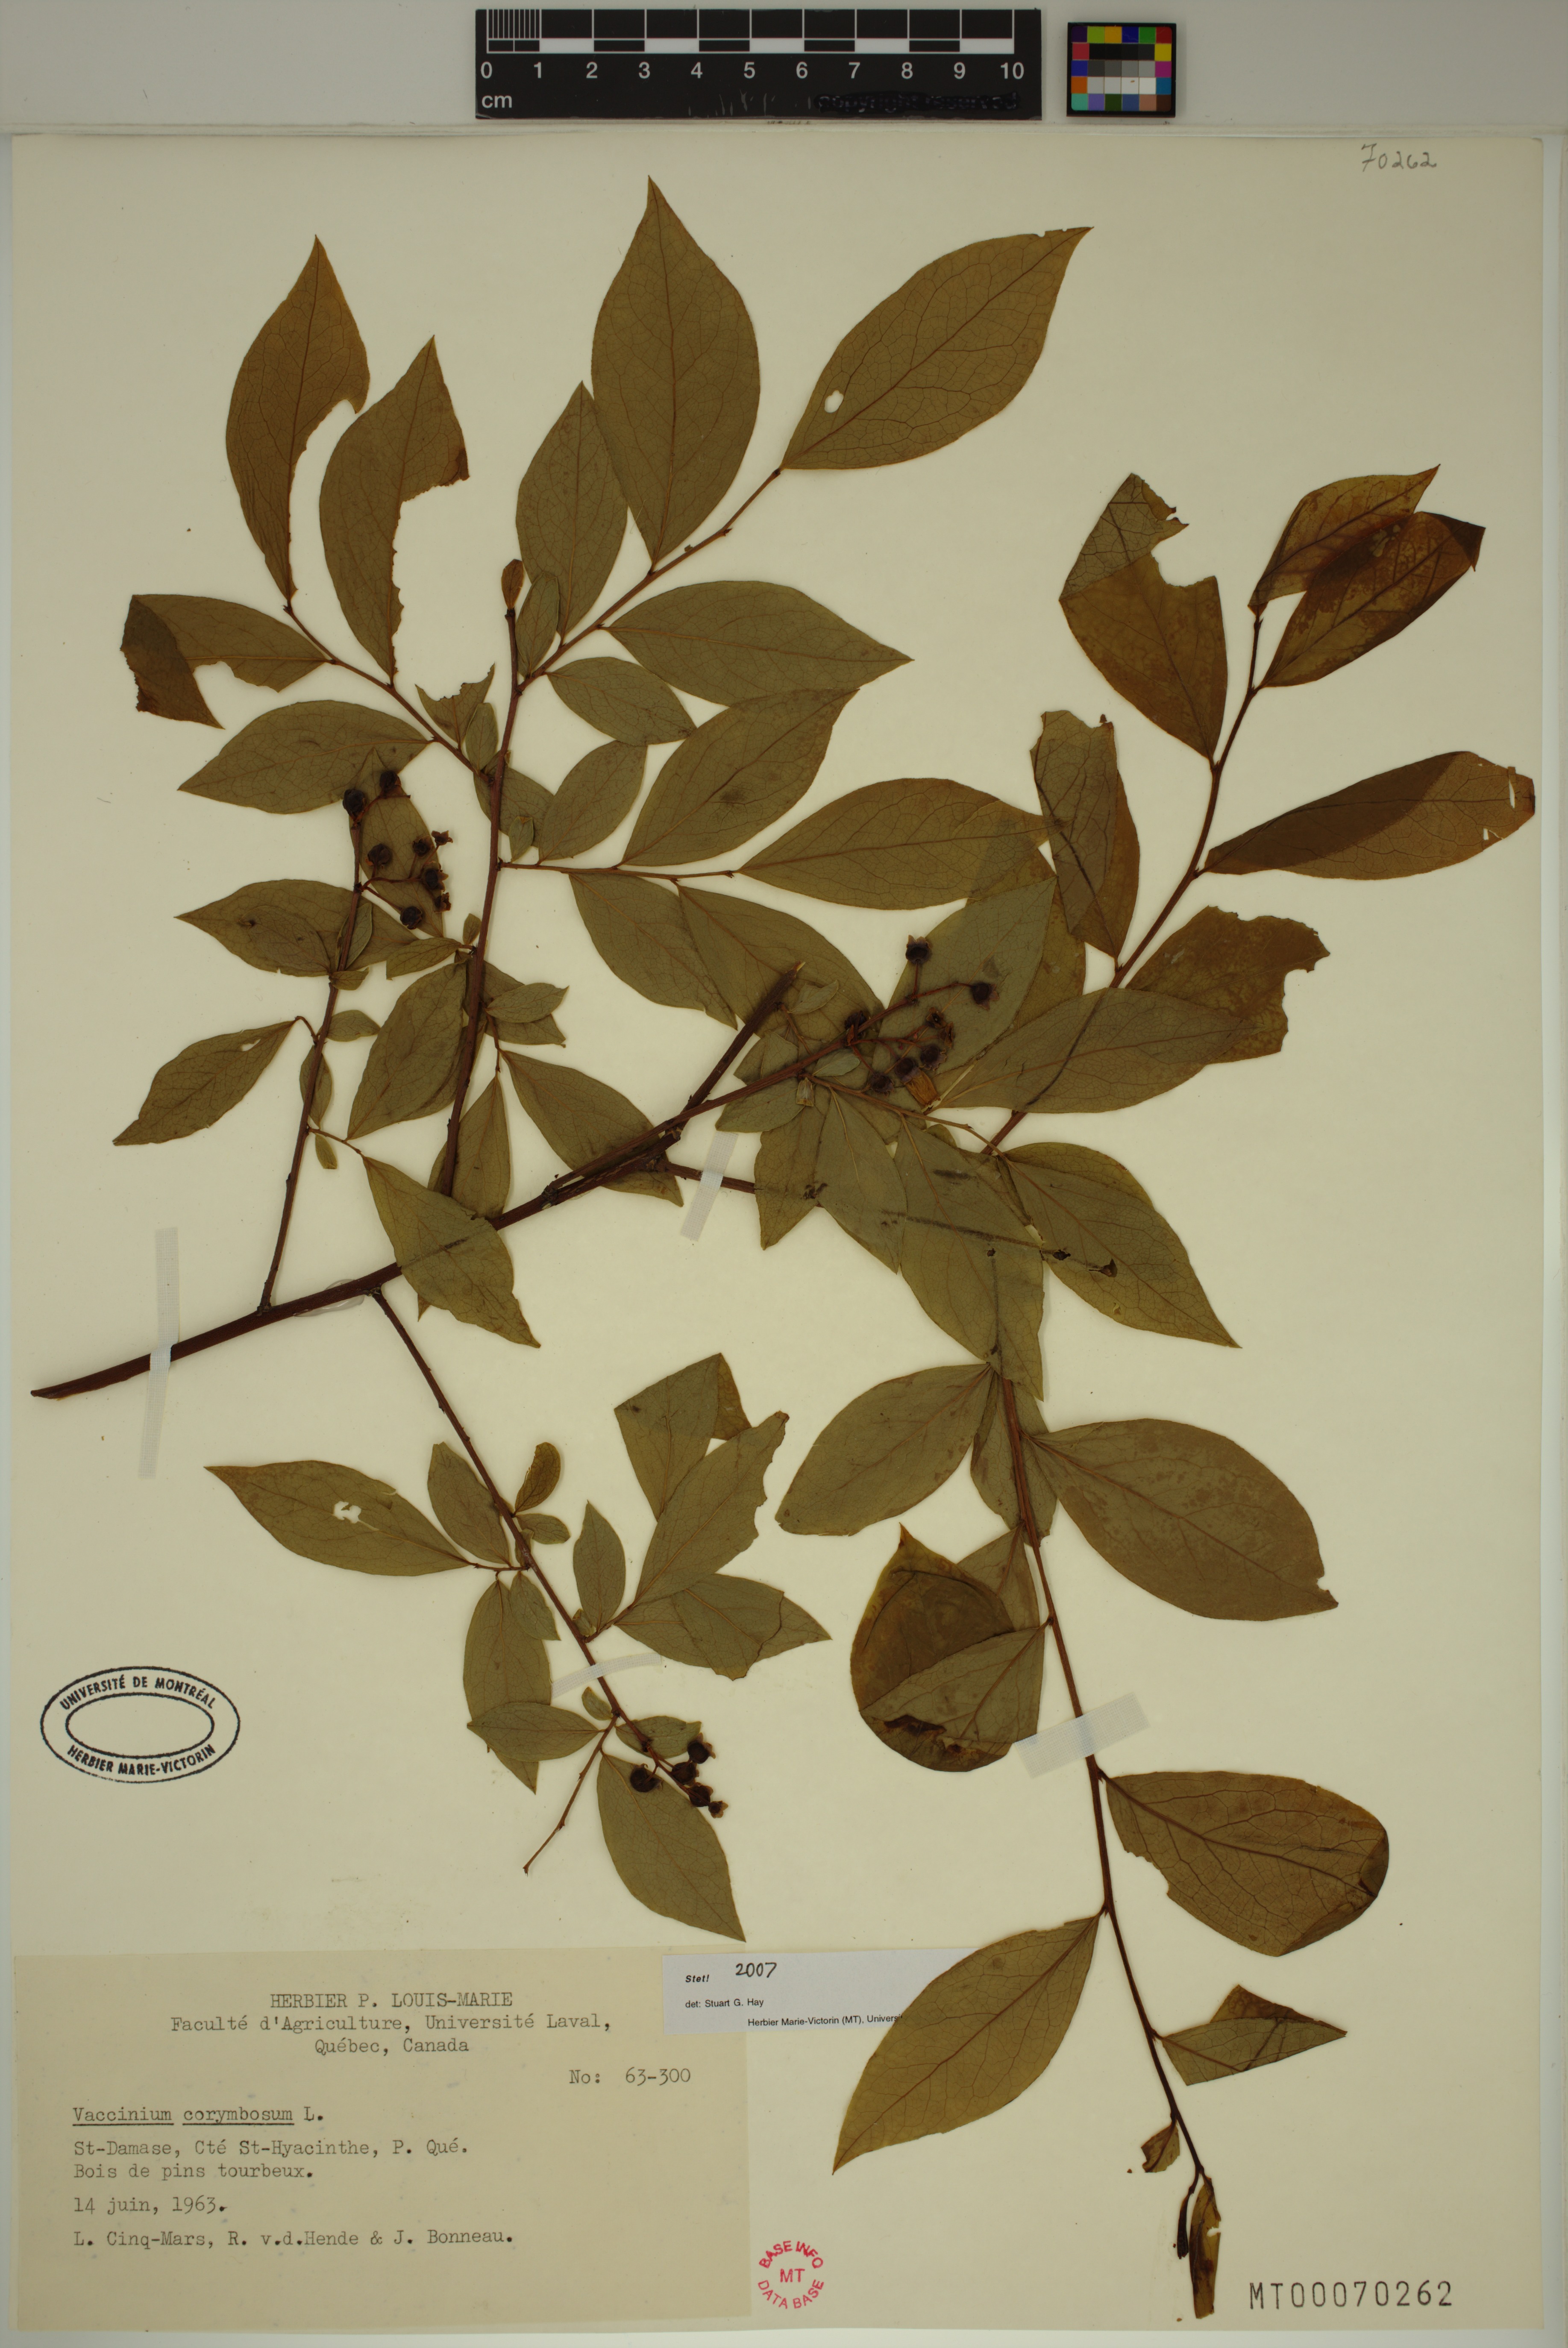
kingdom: Plantae
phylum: Tracheophyta
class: Magnoliopsida
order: Ericales
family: Ericaceae
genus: Vaccinium
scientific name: Vaccinium corymbosum
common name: Blueberry
